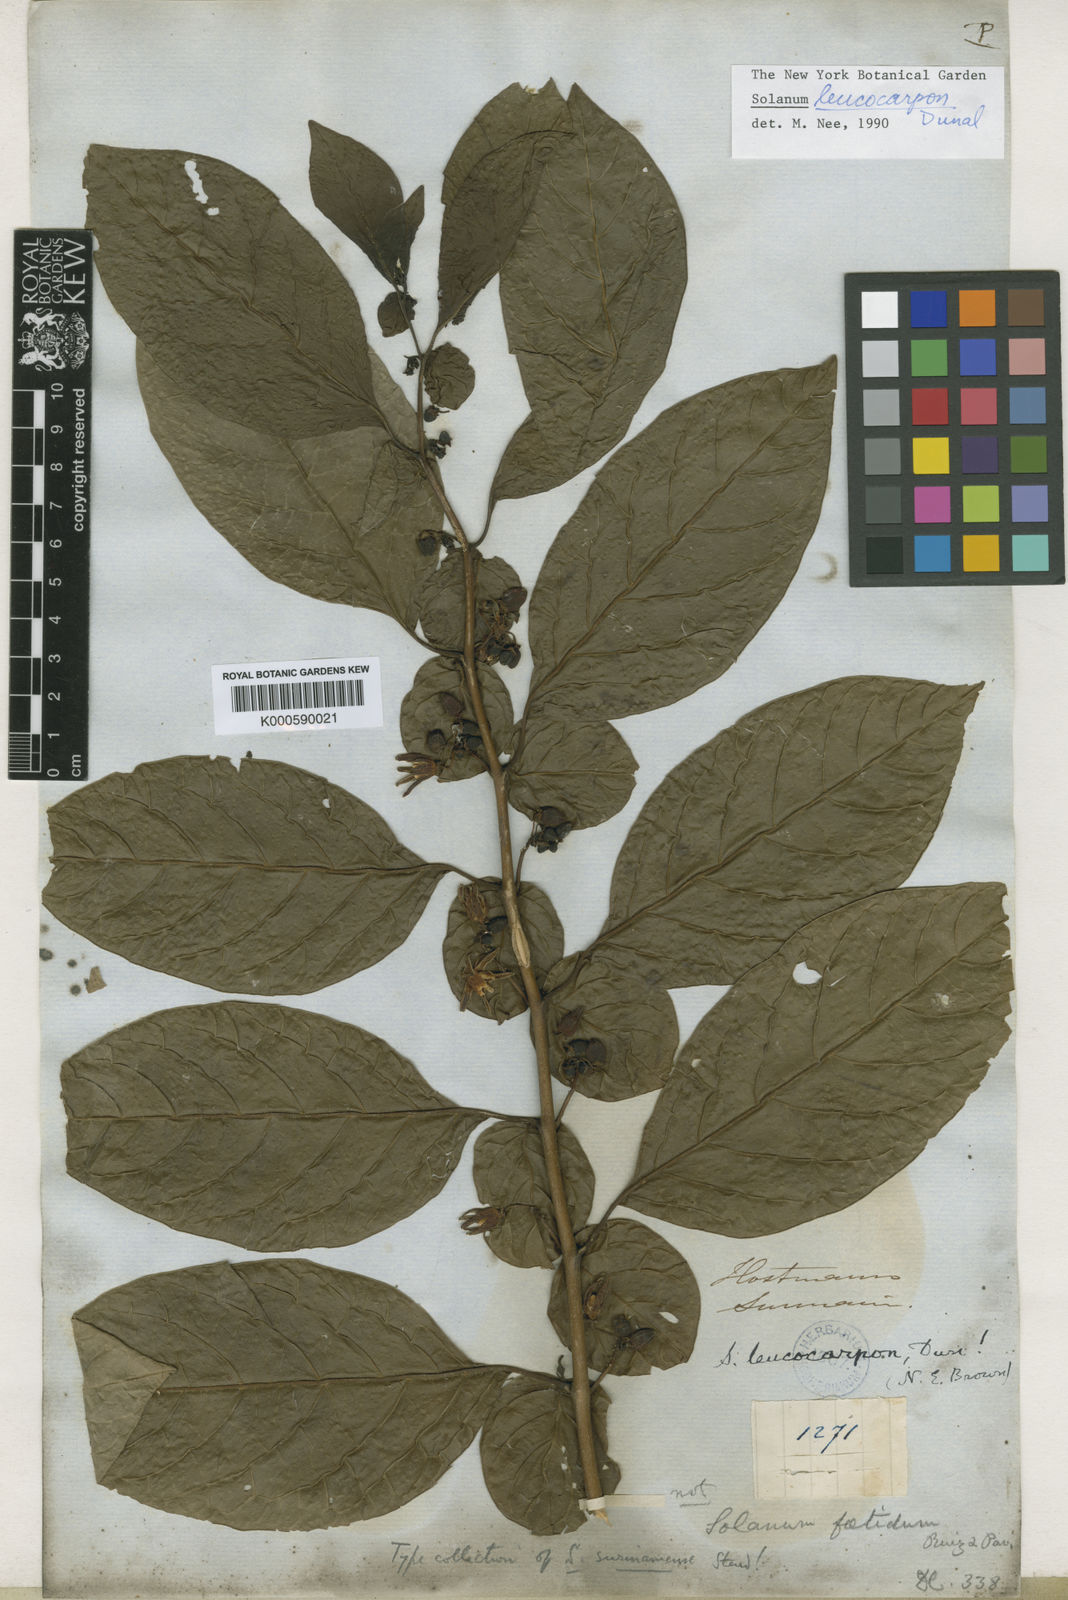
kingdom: Plantae
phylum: Tracheophyta
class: Magnoliopsida
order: Solanales
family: Solanaceae
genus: Solanum
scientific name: Solanum leucocarpon
